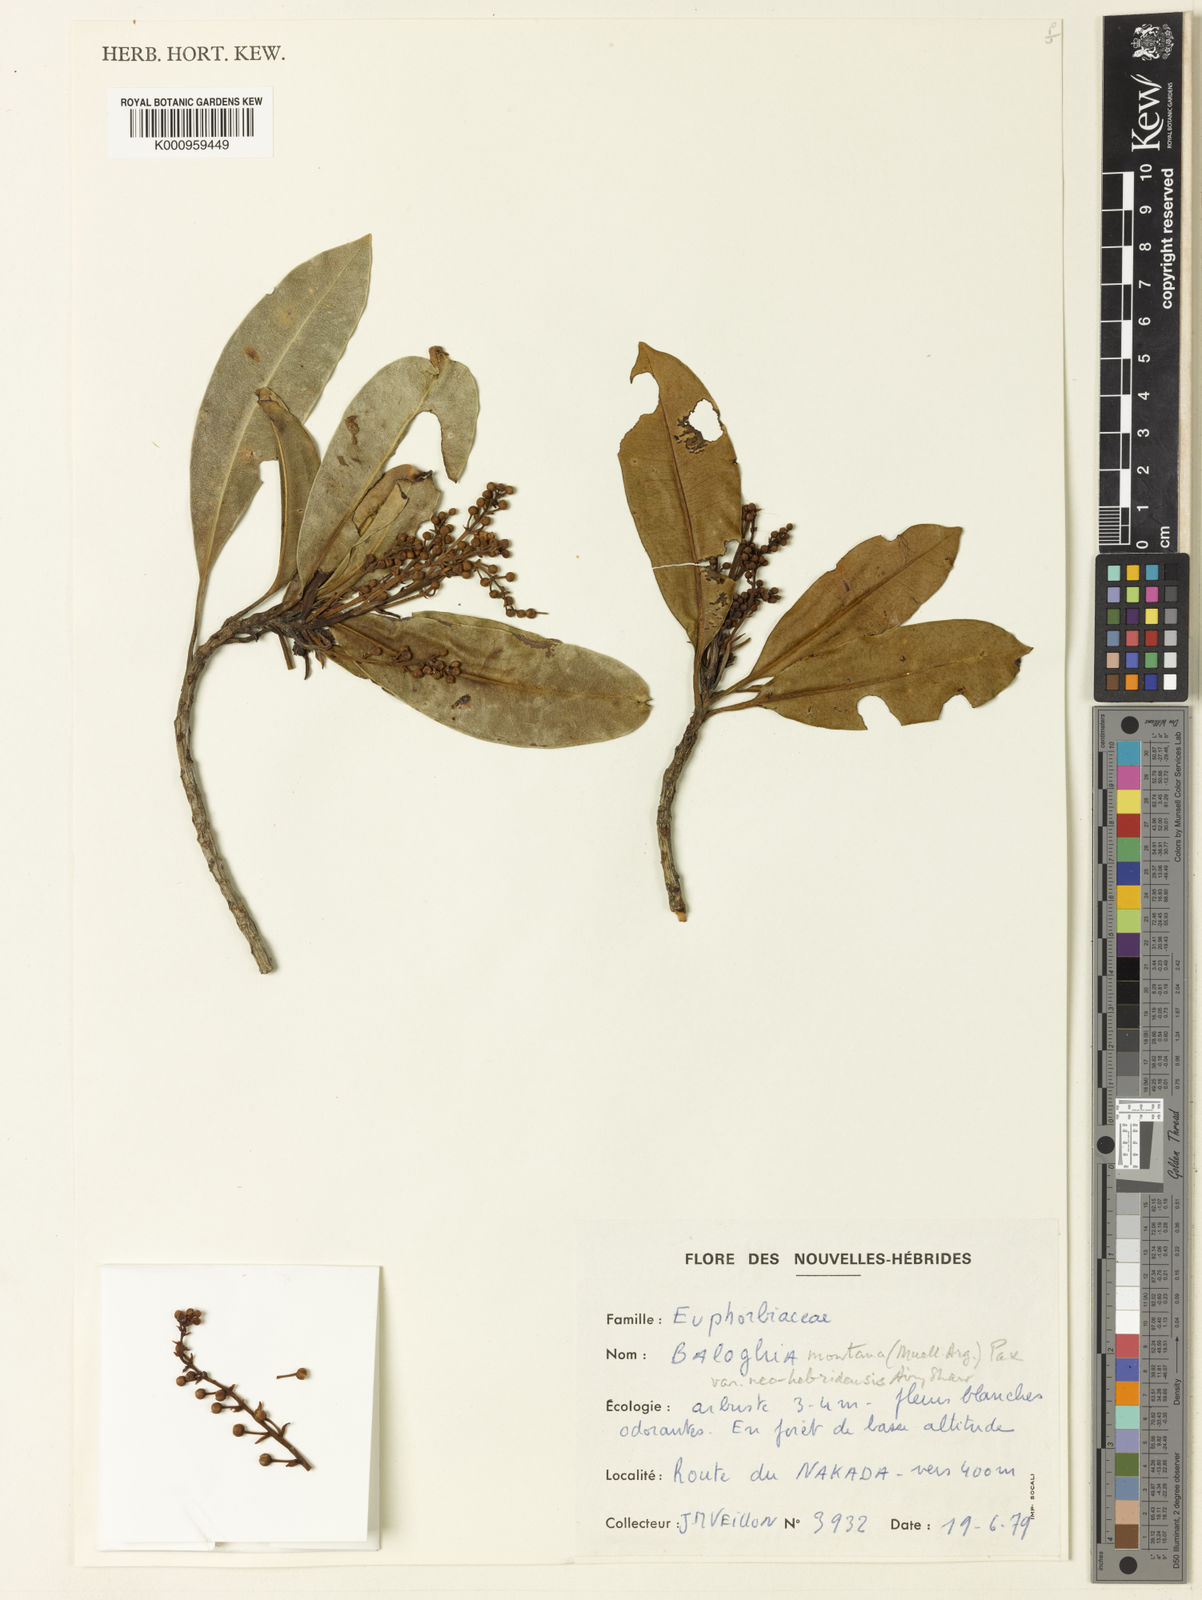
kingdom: Plantae
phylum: Tracheophyta
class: Magnoliopsida
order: Malpighiales
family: Euphorbiaceae
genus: Baloghia
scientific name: Baloghia montana
